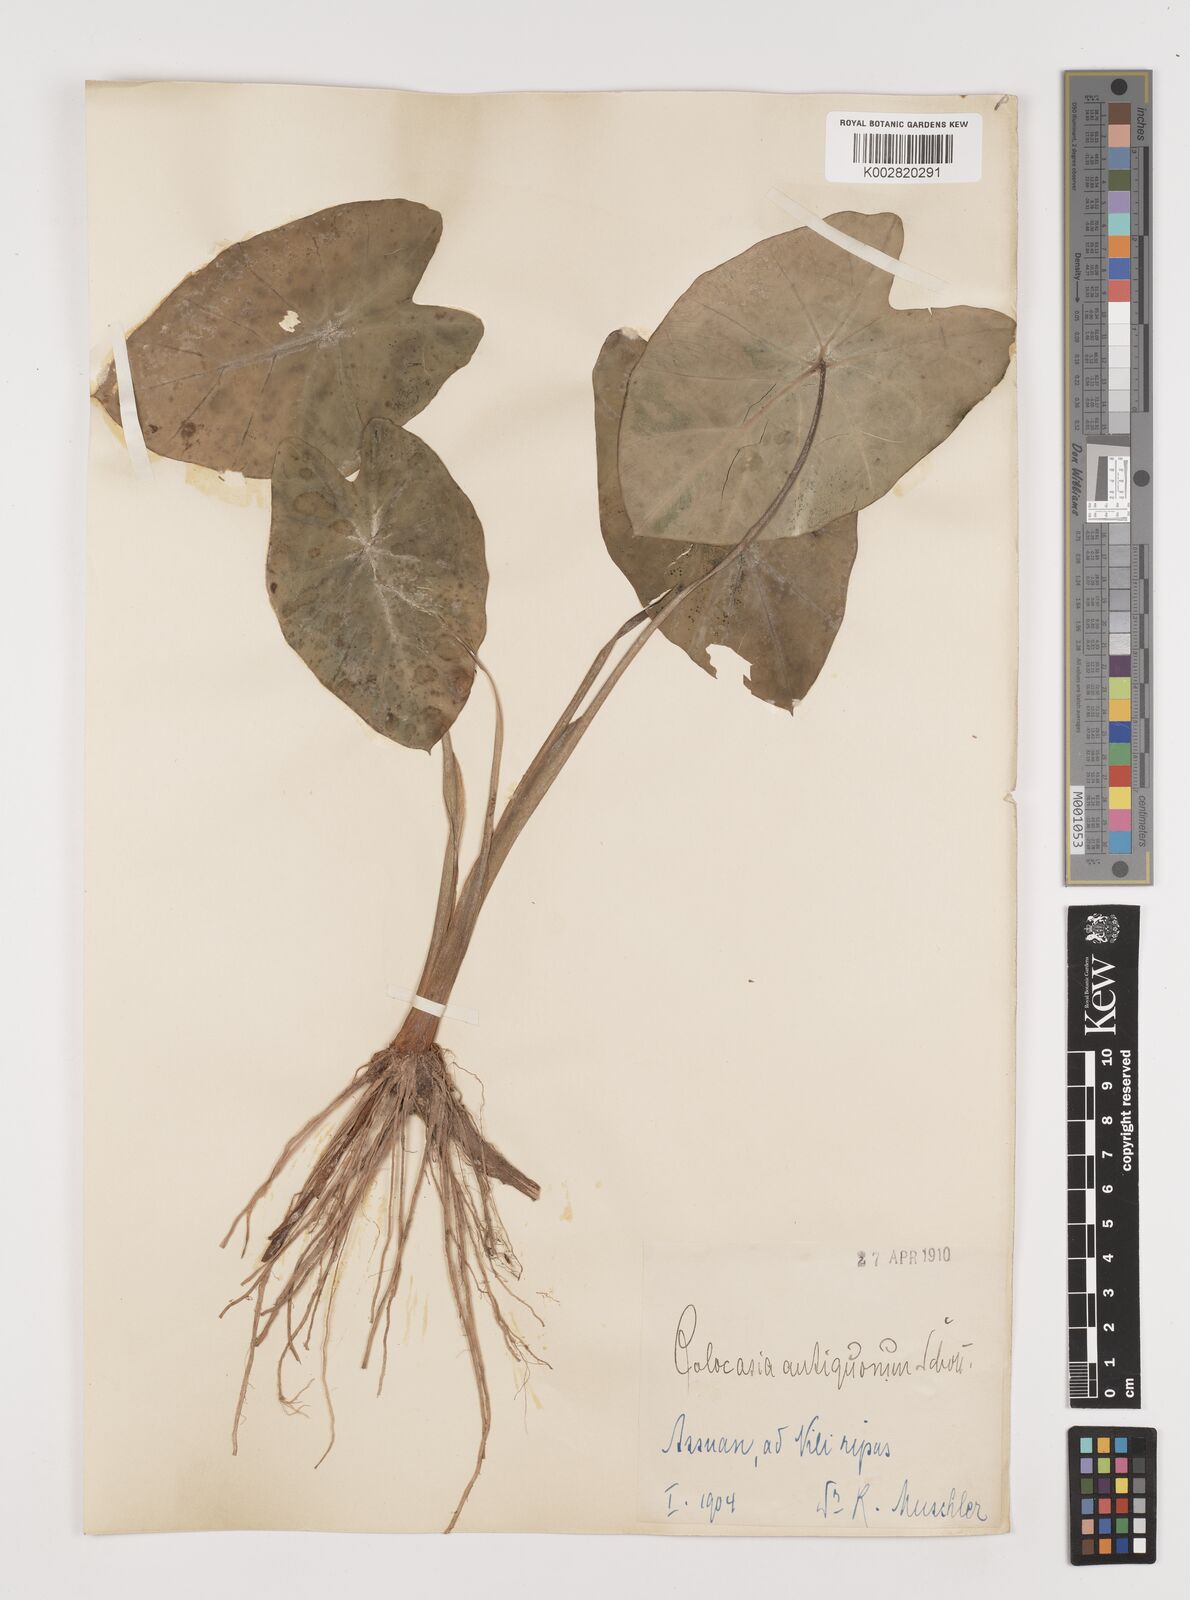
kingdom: Plantae
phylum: Tracheophyta
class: Liliopsida
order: Alismatales
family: Araceae
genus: Colocasia
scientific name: Colocasia esculenta
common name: Taro
